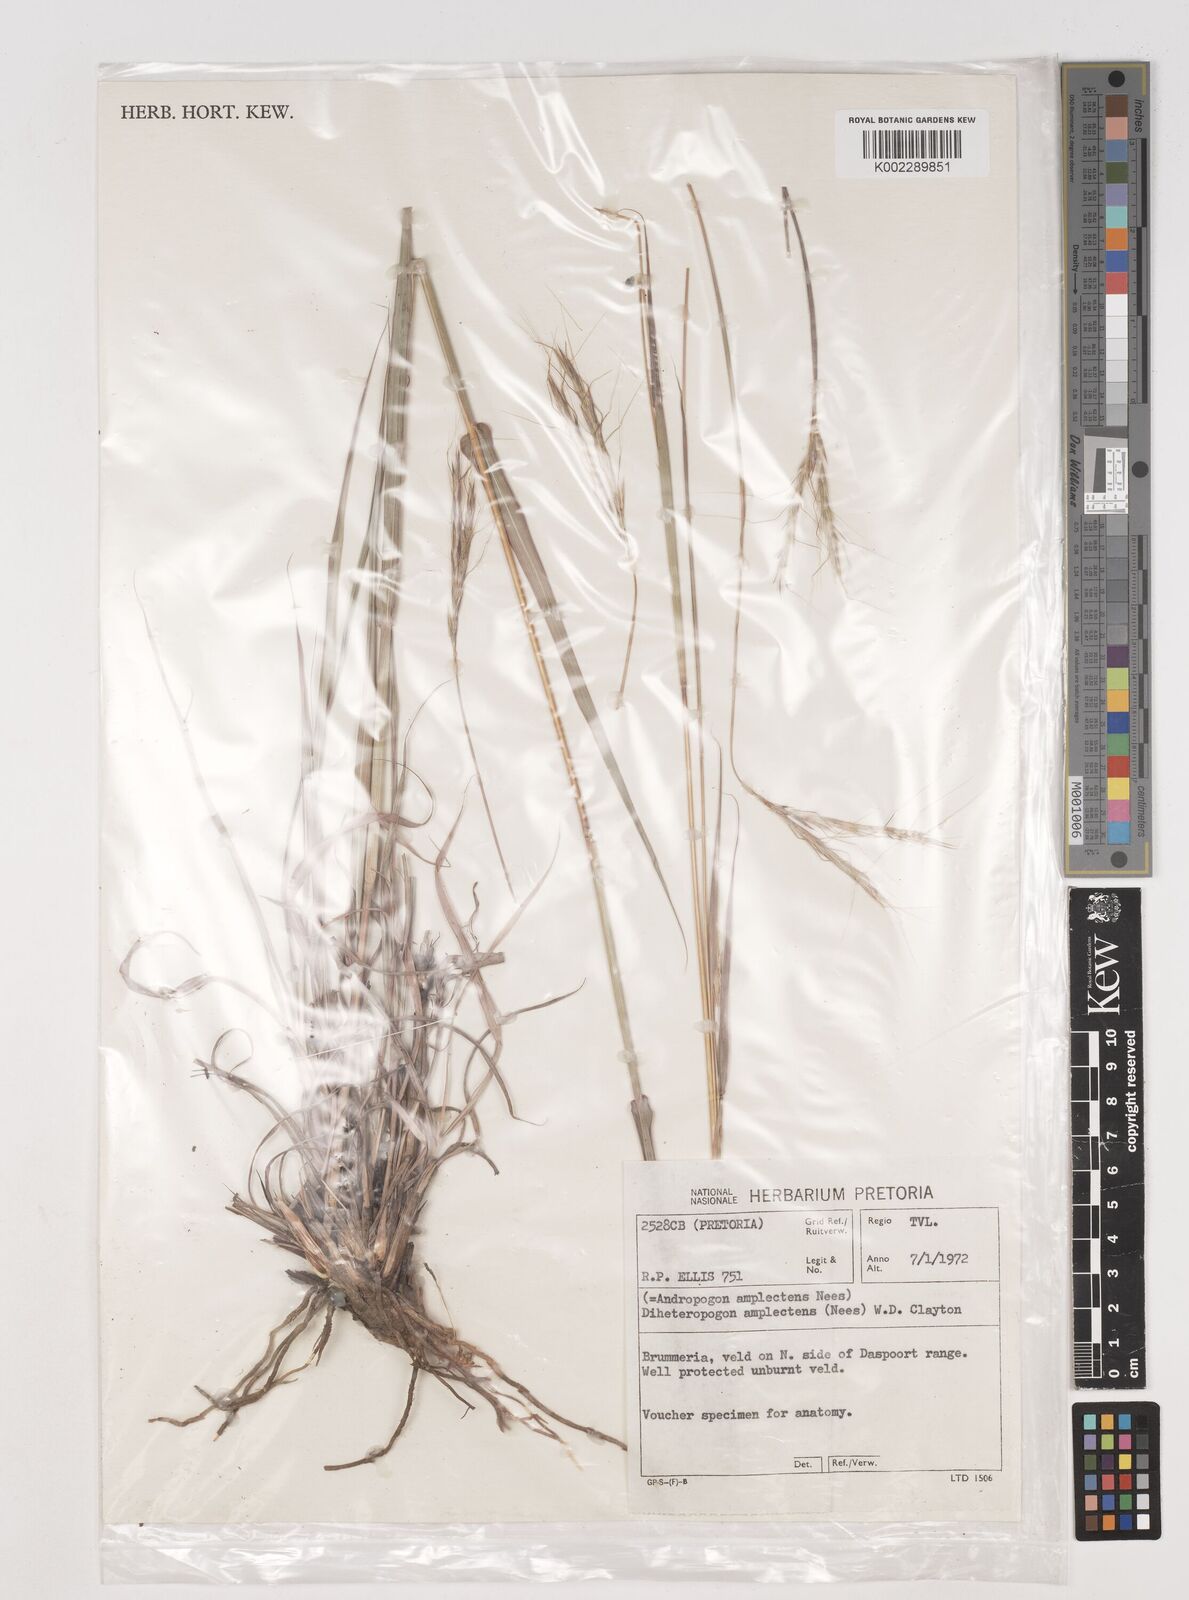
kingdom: Plantae
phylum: Tracheophyta
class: Liliopsida
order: Poales
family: Poaceae
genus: Diheteropogon
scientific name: Diheteropogon amplectens
